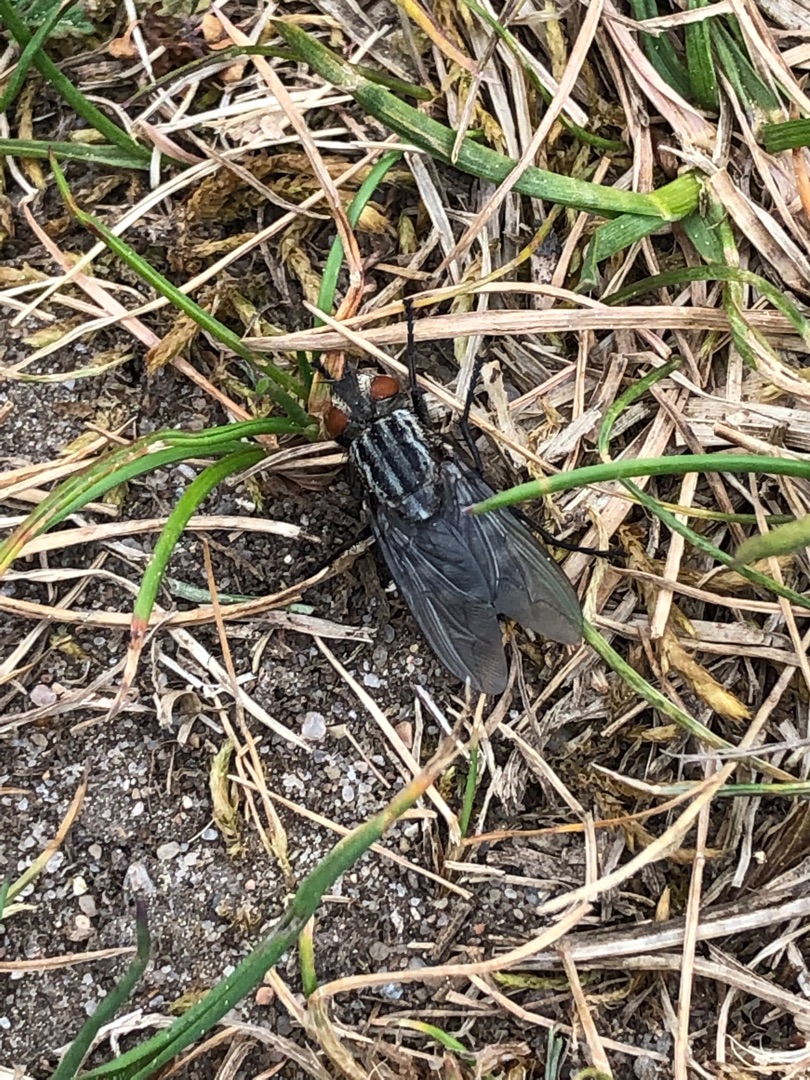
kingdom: Animalia
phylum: Arthropoda
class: Insecta
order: Diptera
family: Sarcophagidae
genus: Sarcophaga
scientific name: Sarcophaga
